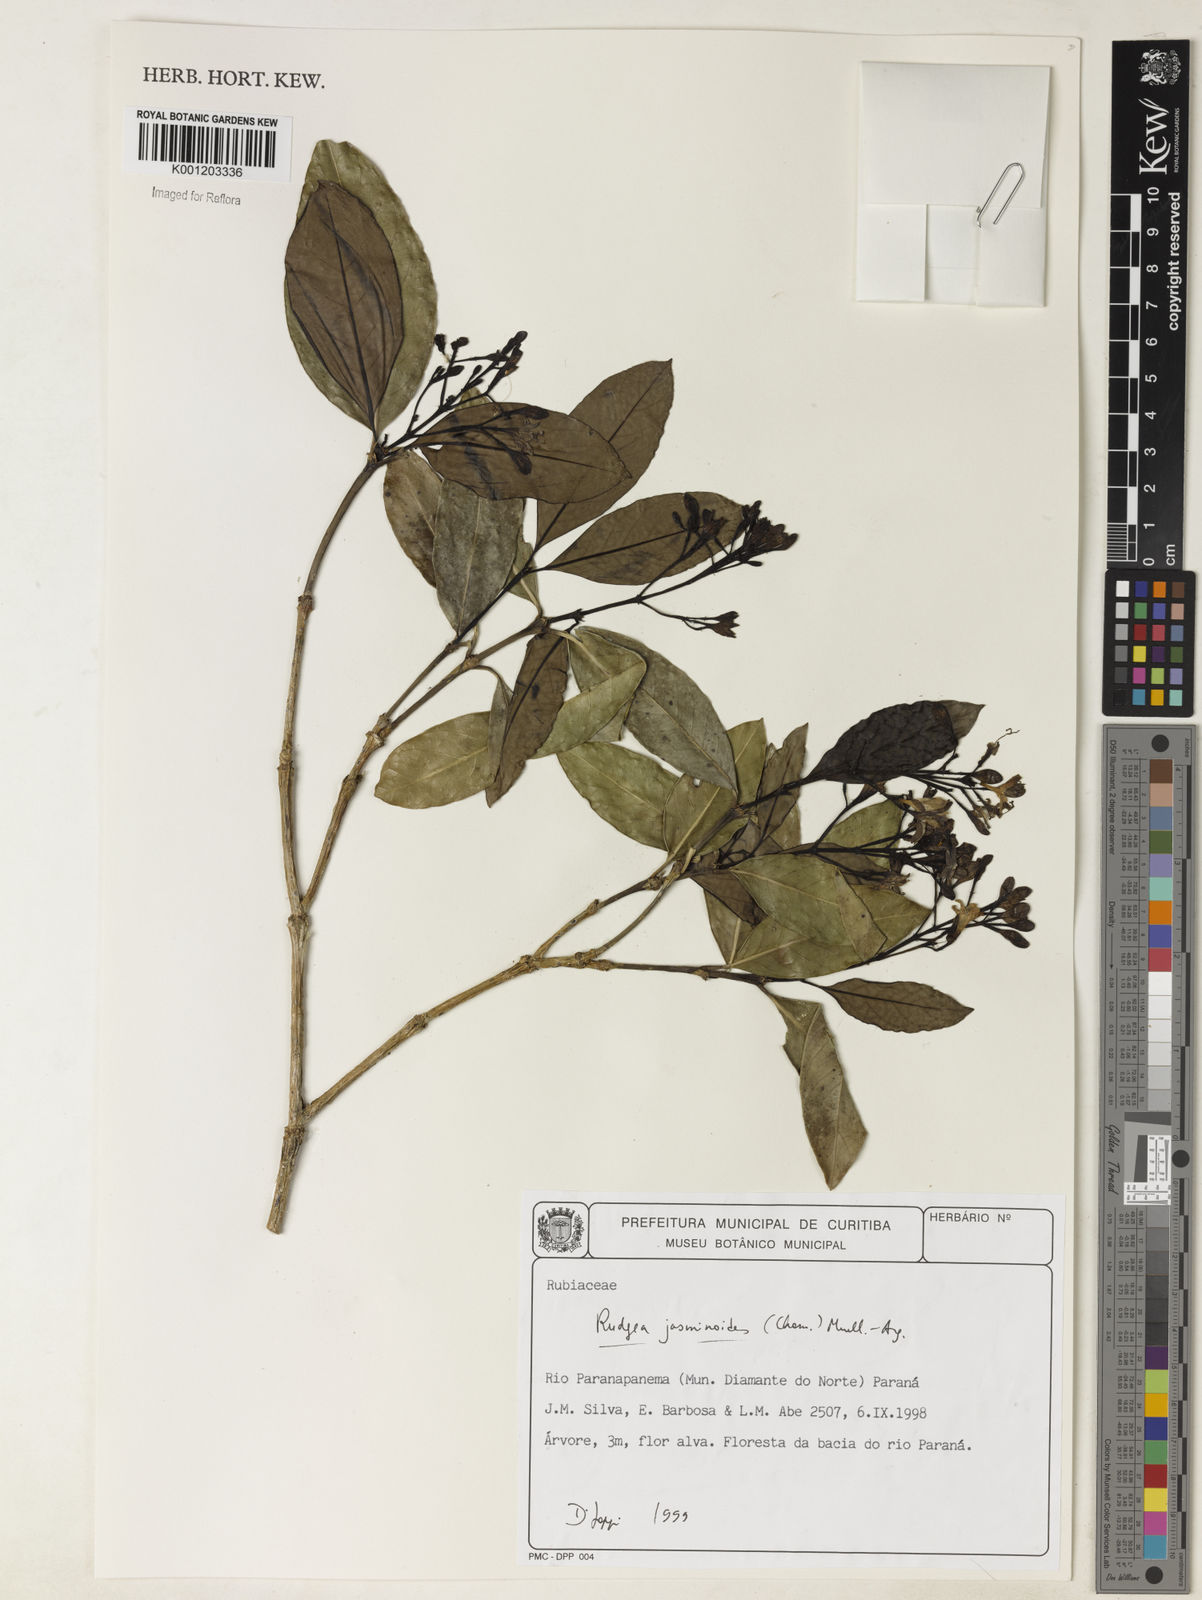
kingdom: Plantae
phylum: Tracheophyta
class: Magnoliopsida
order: Gentianales
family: Rubiaceae
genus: Rudgea
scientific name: Rudgea
